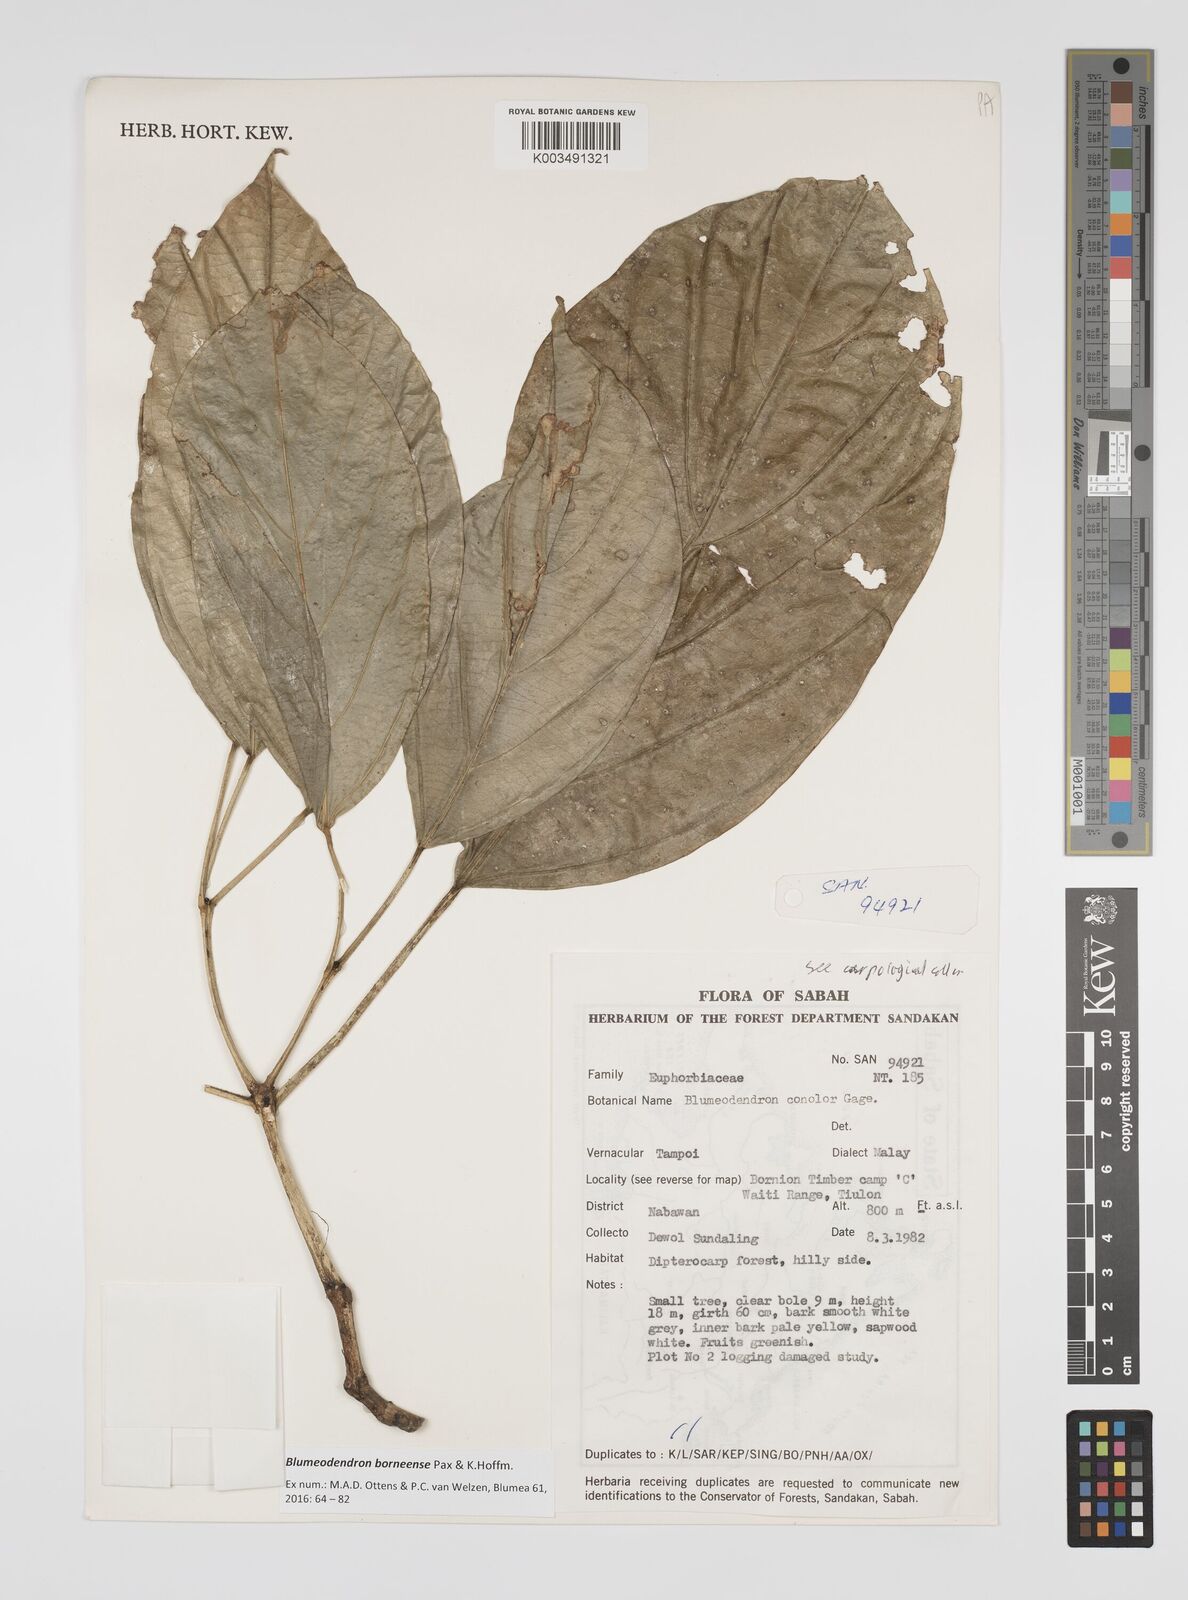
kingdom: Plantae
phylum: Tracheophyta
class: Magnoliopsida
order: Malpighiales
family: Euphorbiaceae
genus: Blumeodendron
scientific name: Blumeodendron borneense
